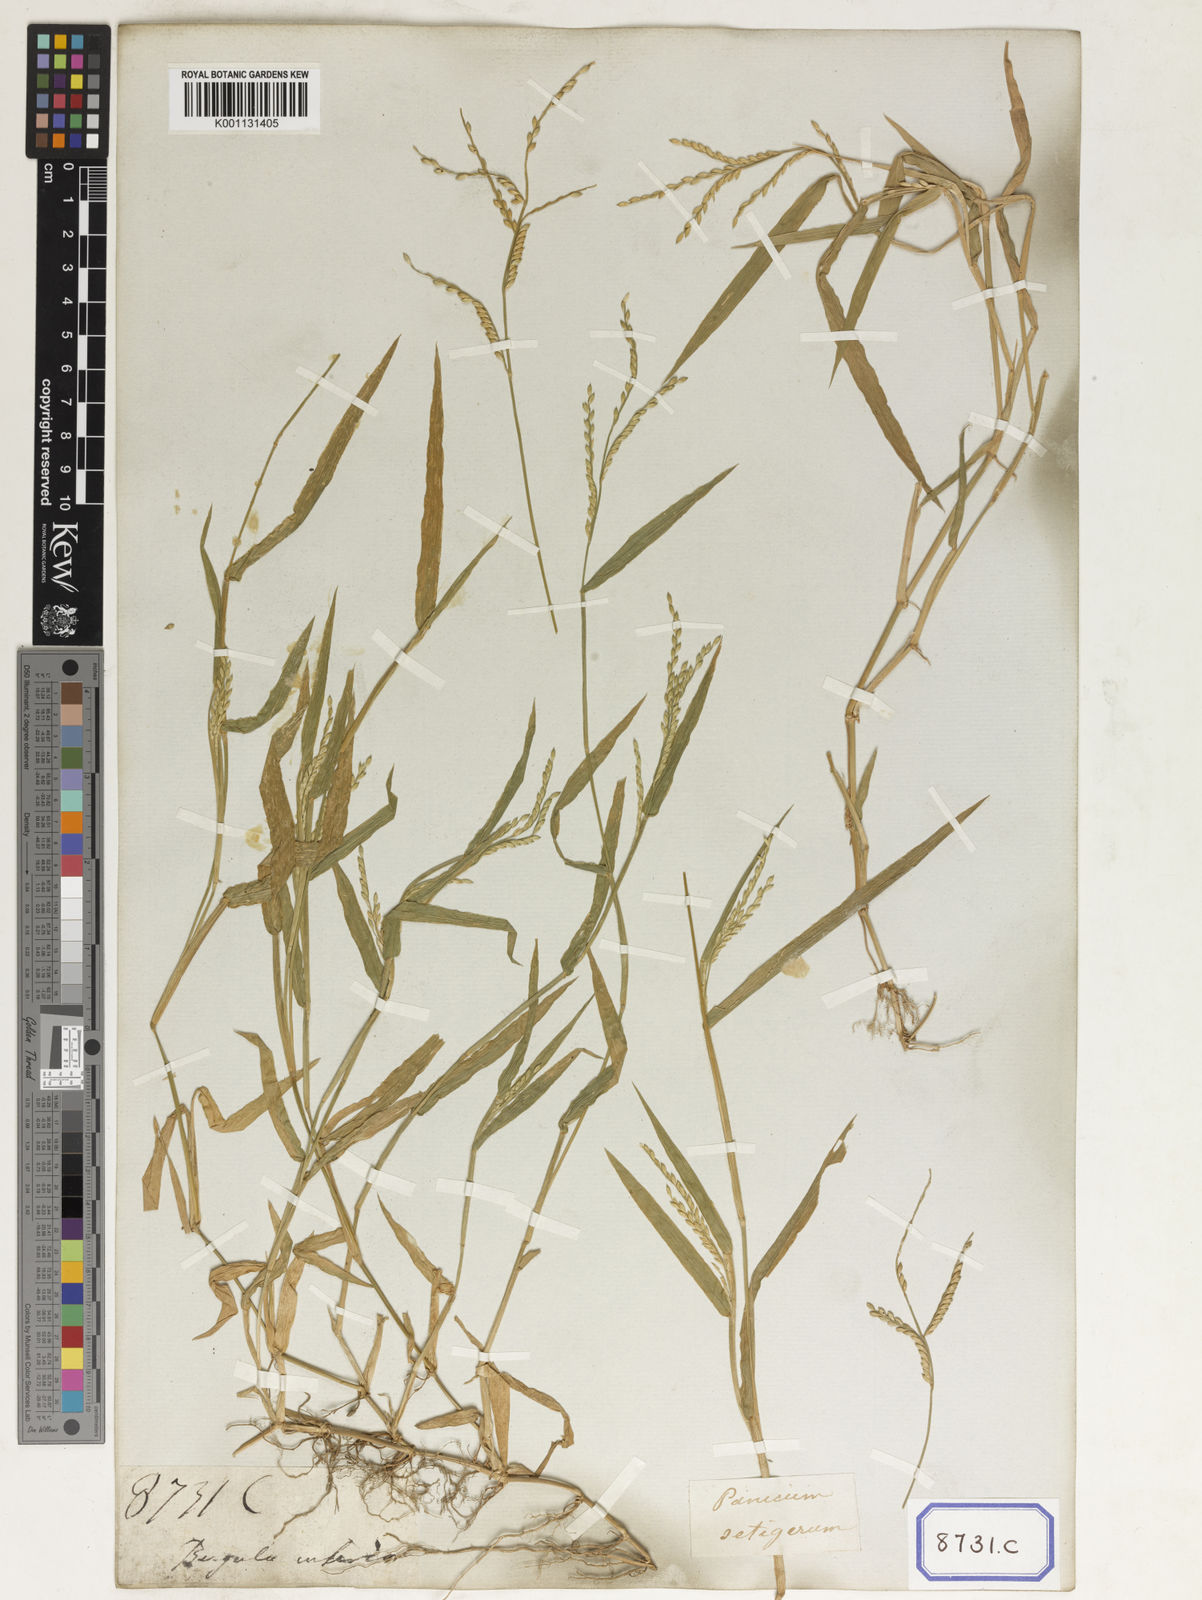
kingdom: Plantae
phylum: Tracheophyta
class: Liliopsida
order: Poales
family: Poaceae
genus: Panicum
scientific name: Panicum
